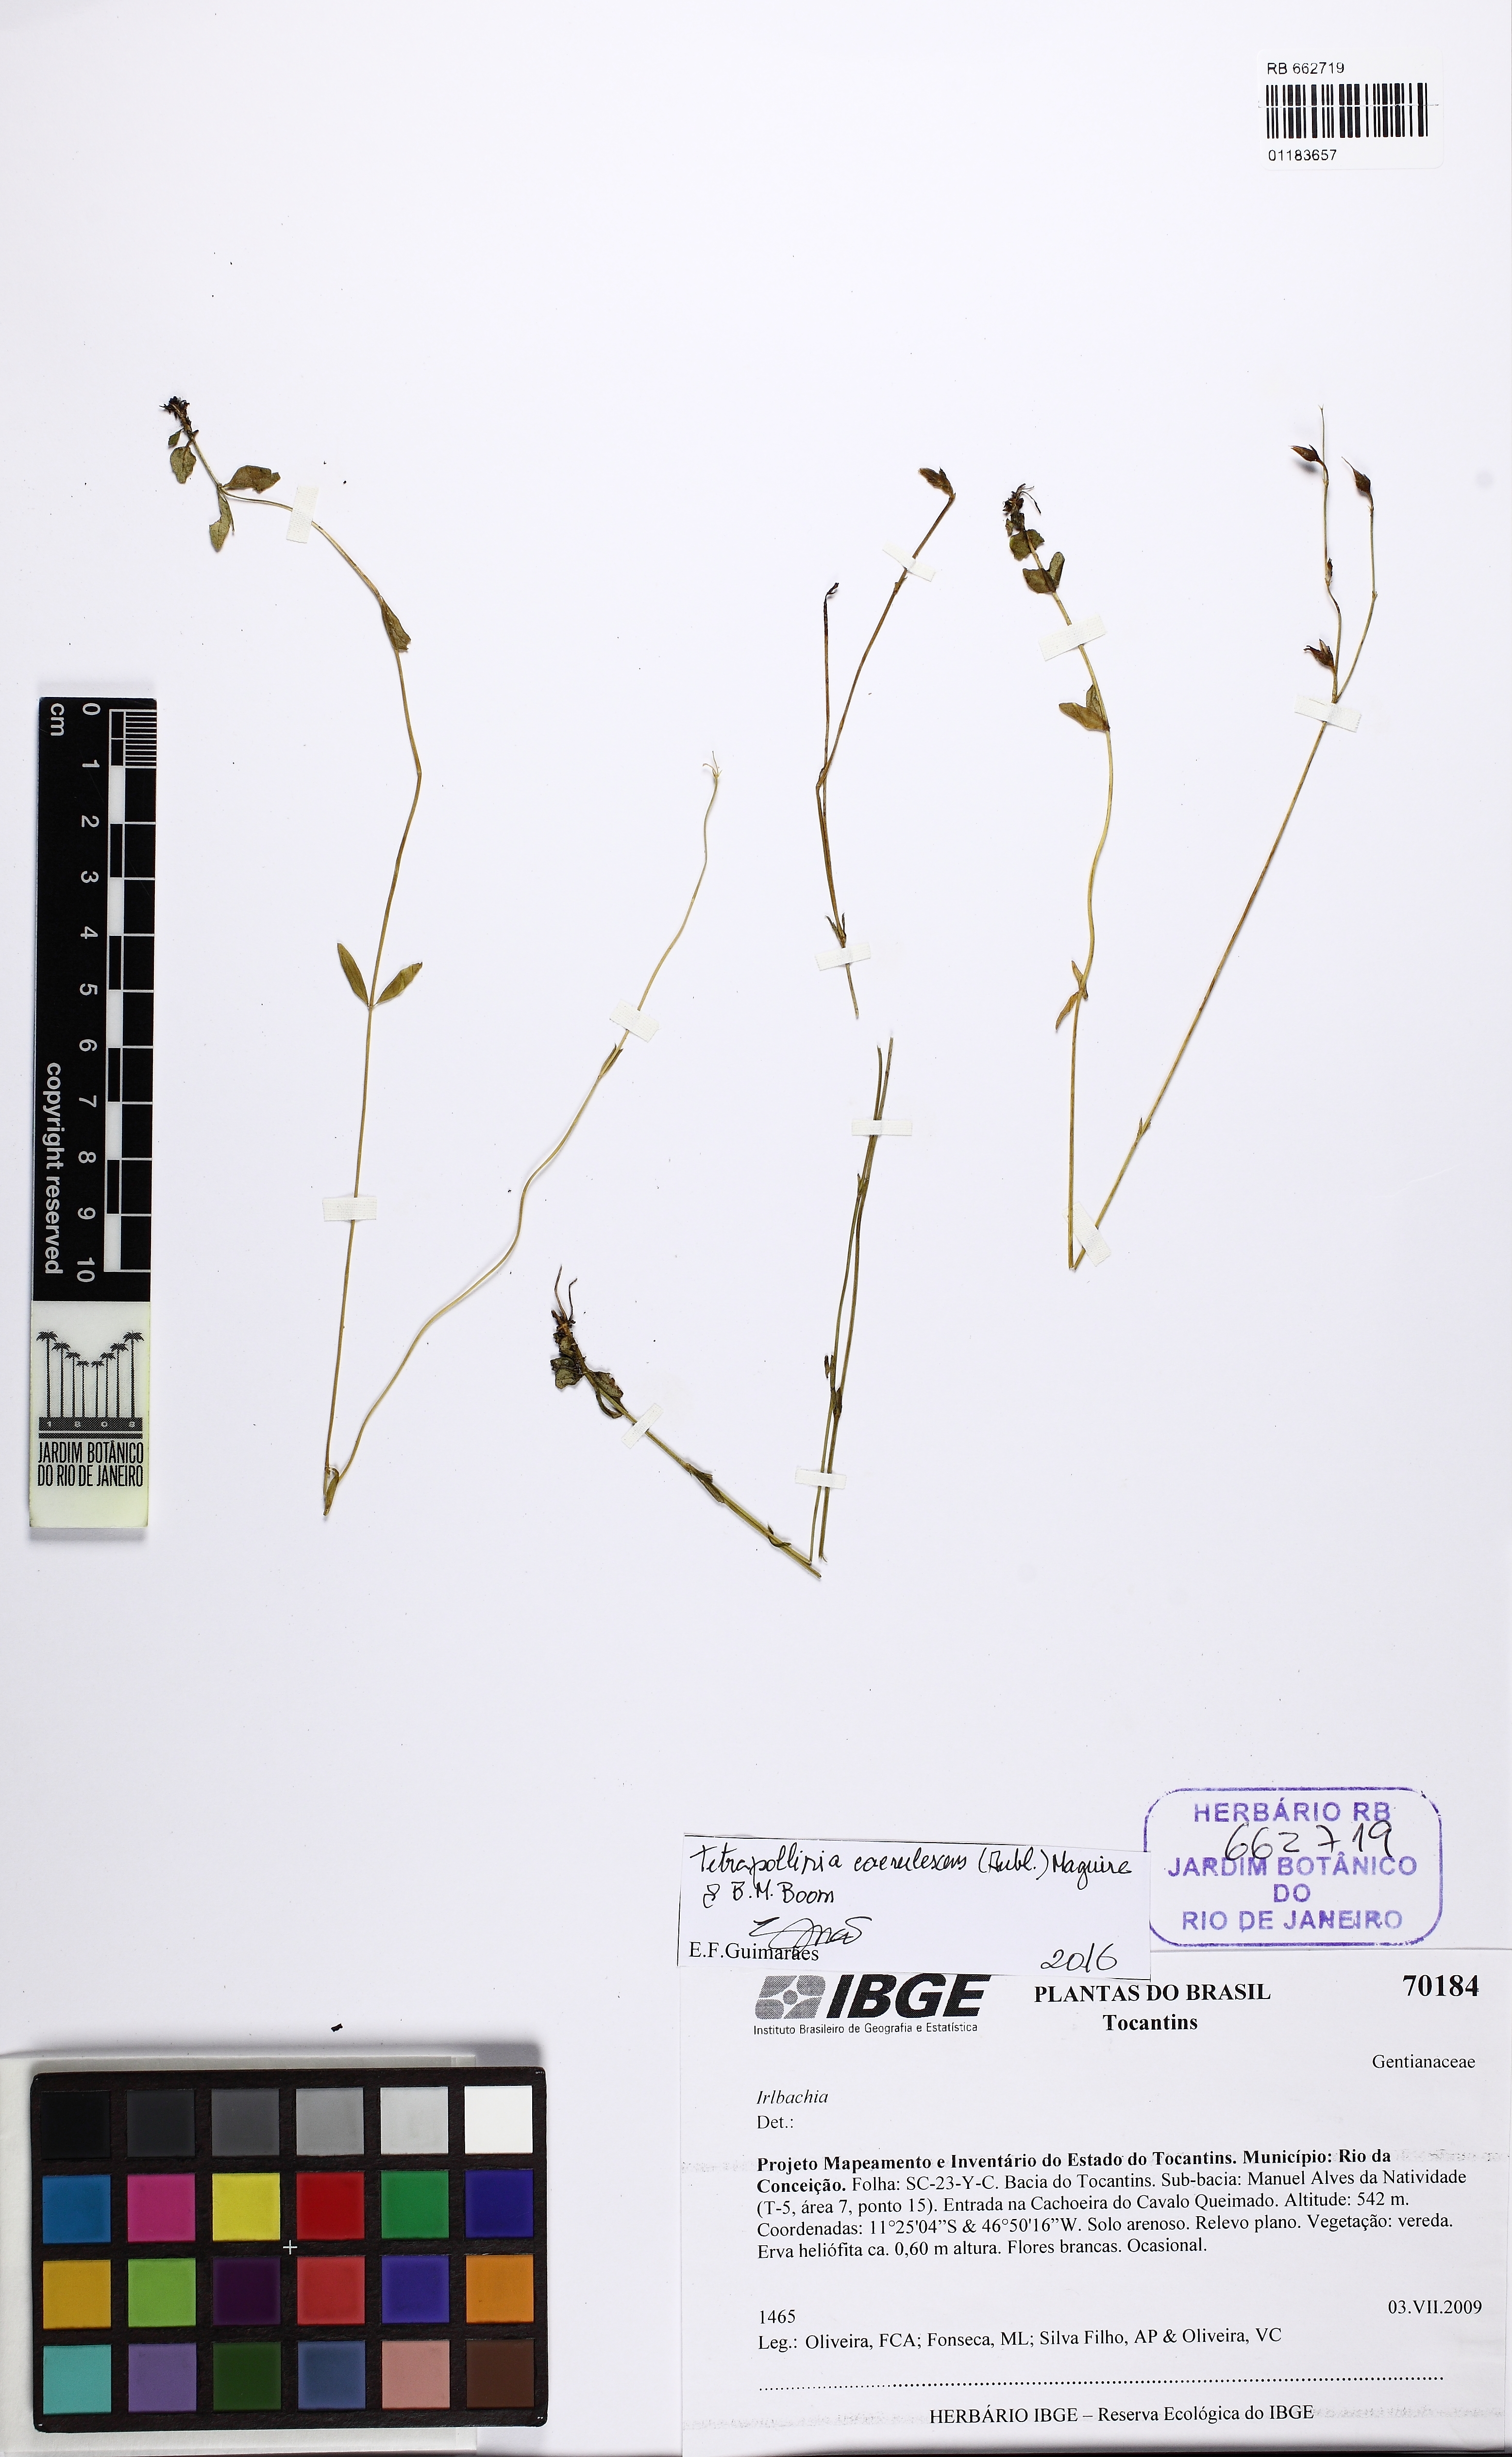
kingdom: Plantae
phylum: Tracheophyta
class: Magnoliopsida
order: Gentianales
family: Gentianaceae
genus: Tetrapollinia
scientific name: Tetrapollinia caerulescens
